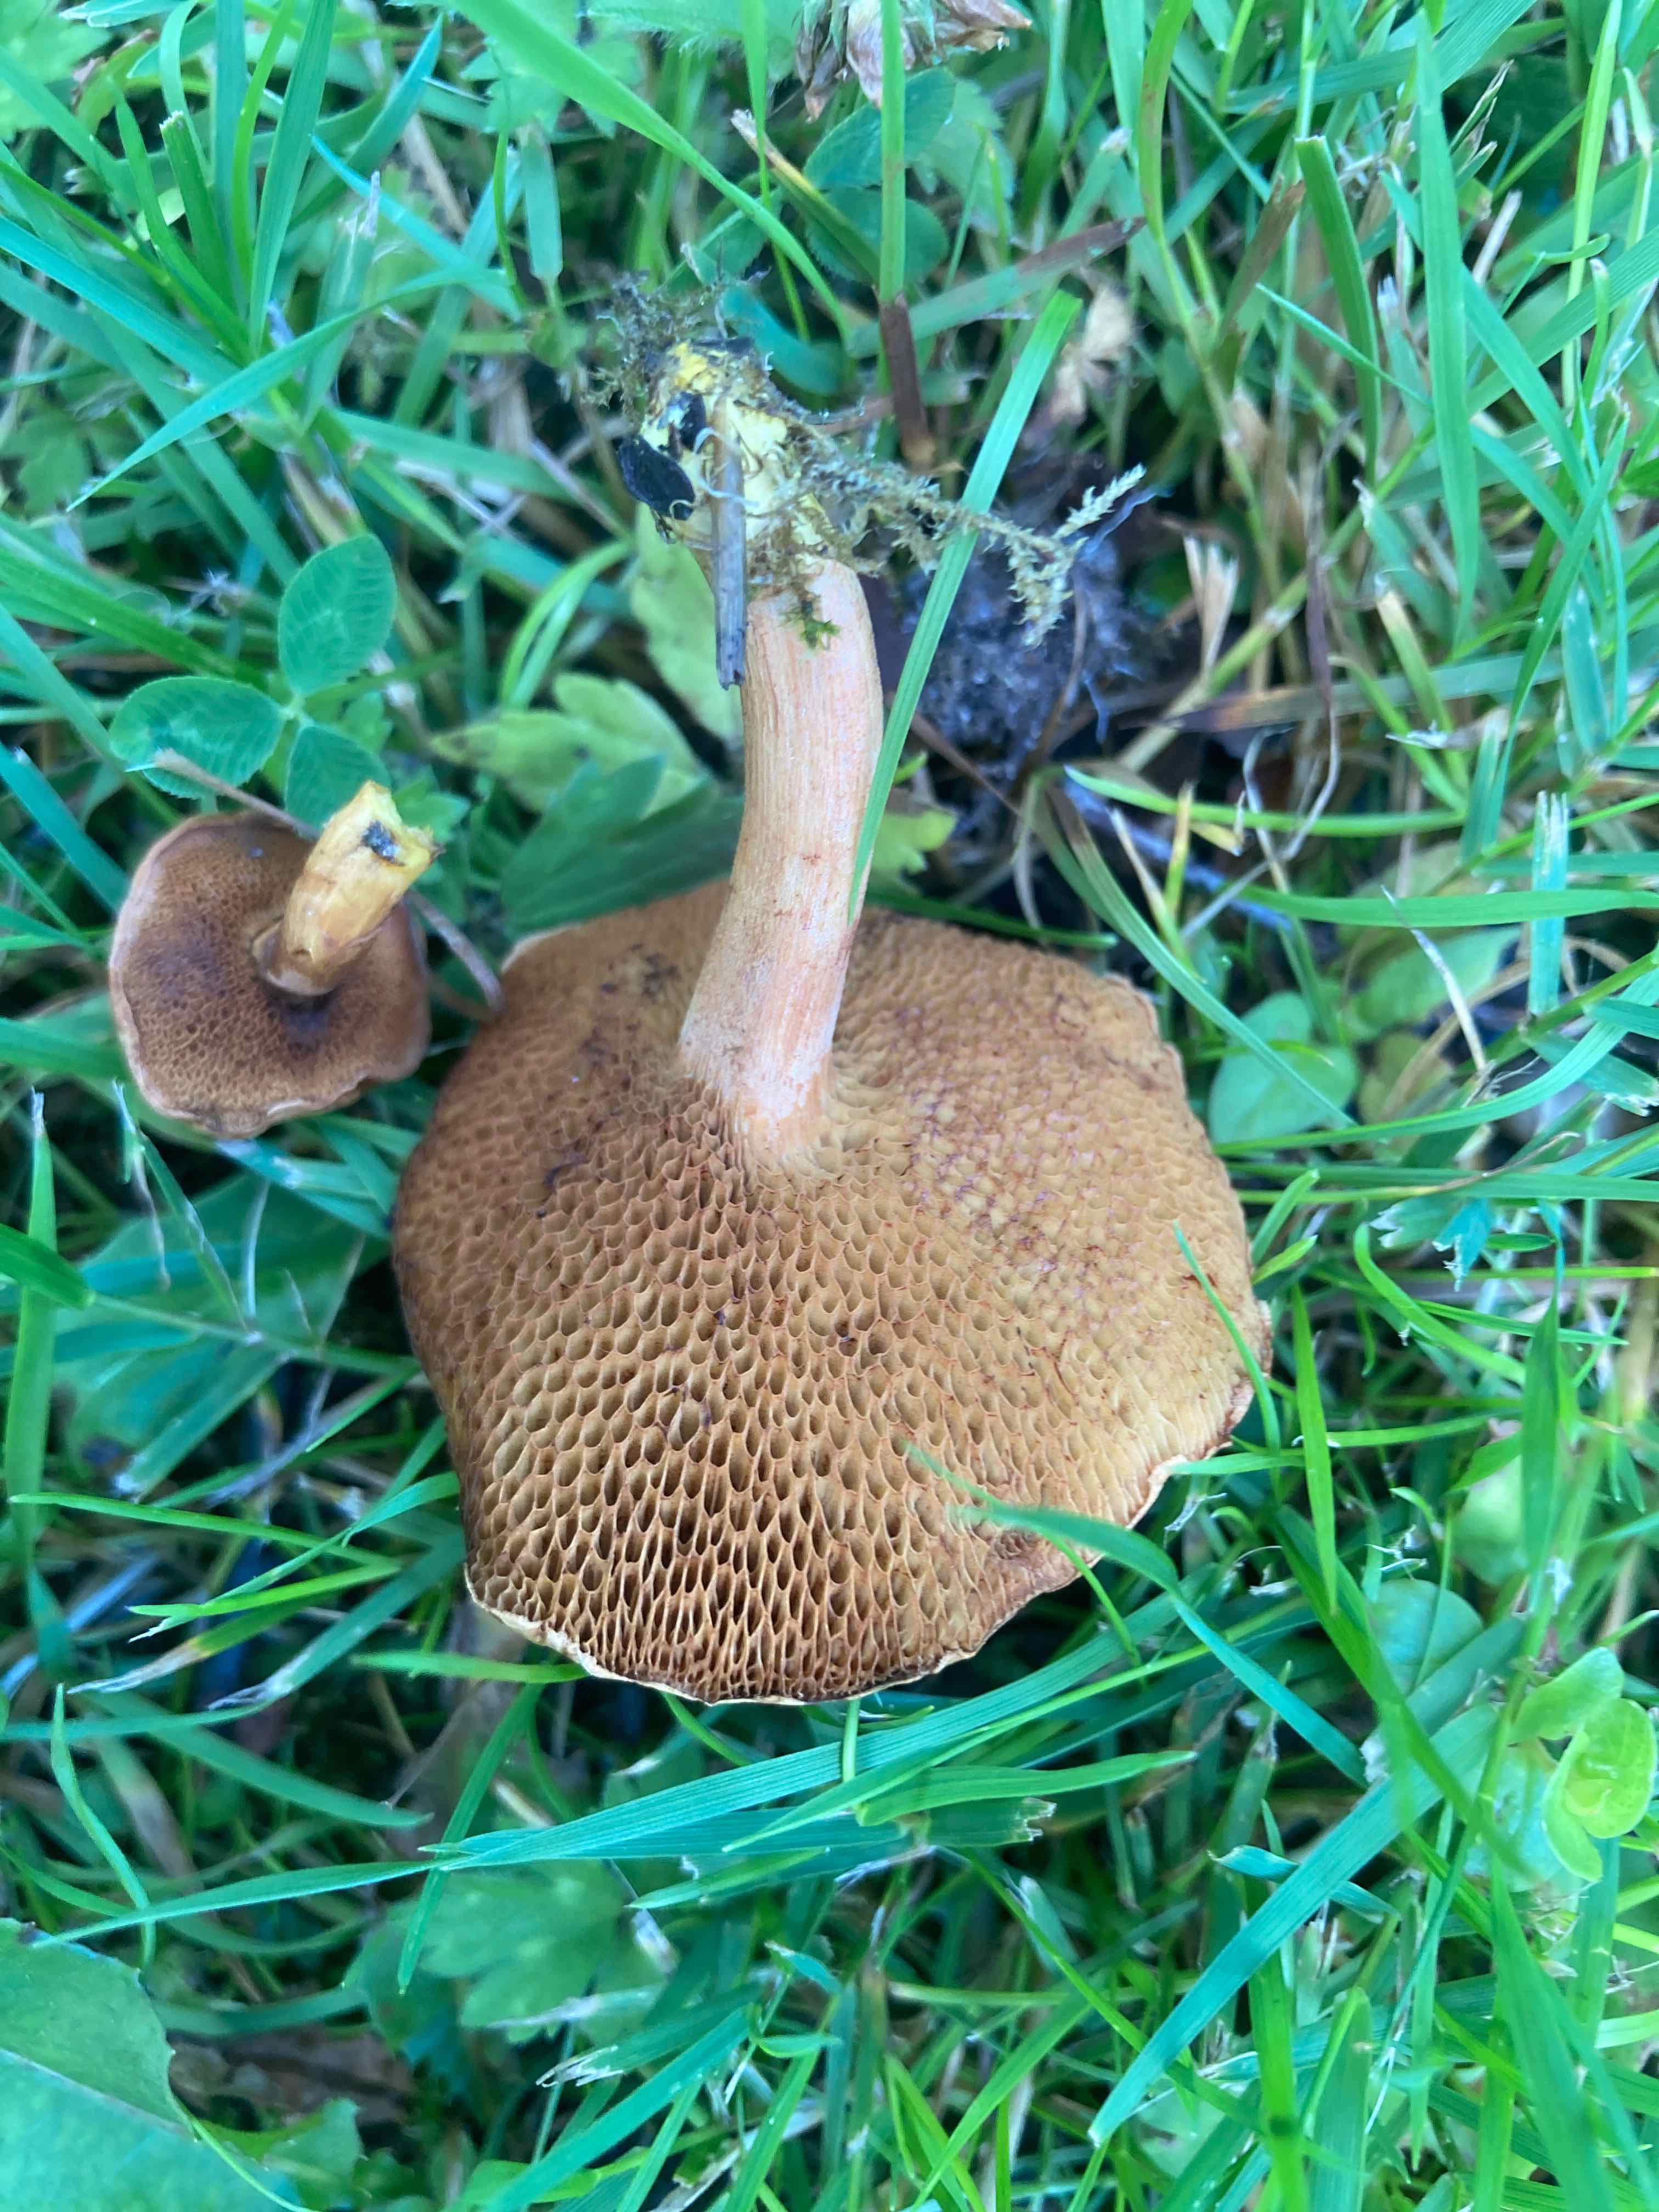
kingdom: Fungi
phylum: Basidiomycota
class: Agaricomycetes
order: Boletales
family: Boletaceae
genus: Chalciporus
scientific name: Chalciporus piperatus
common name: peberrørhat
